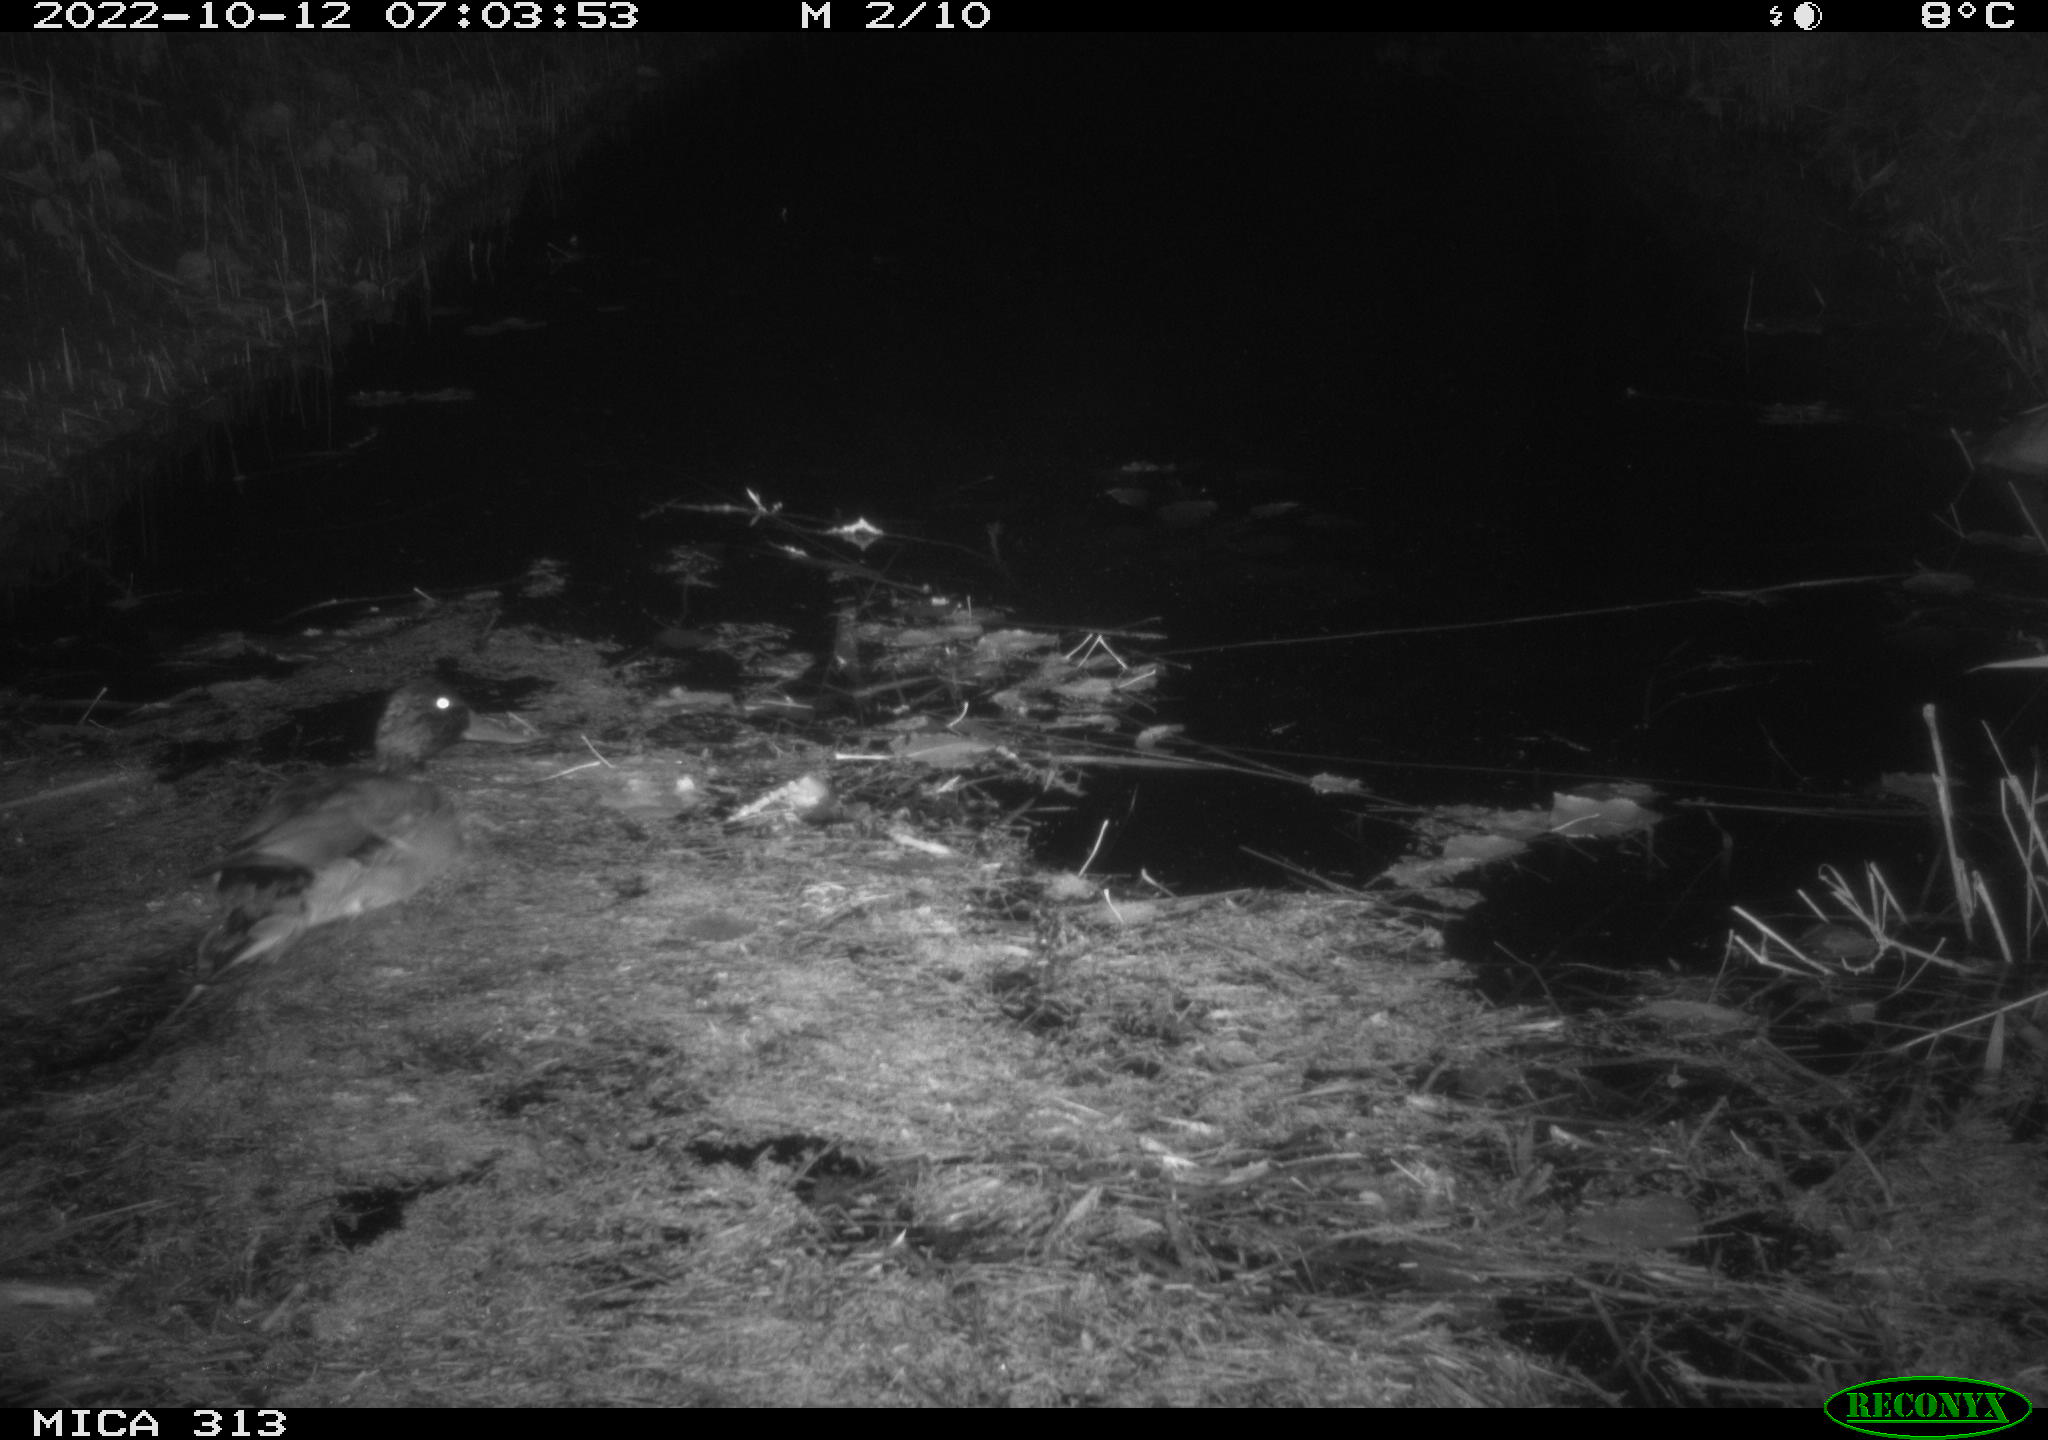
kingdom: Animalia
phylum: Chordata
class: Aves
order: Anseriformes
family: Anatidae
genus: Anas
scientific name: Anas platyrhynchos
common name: Mallard
